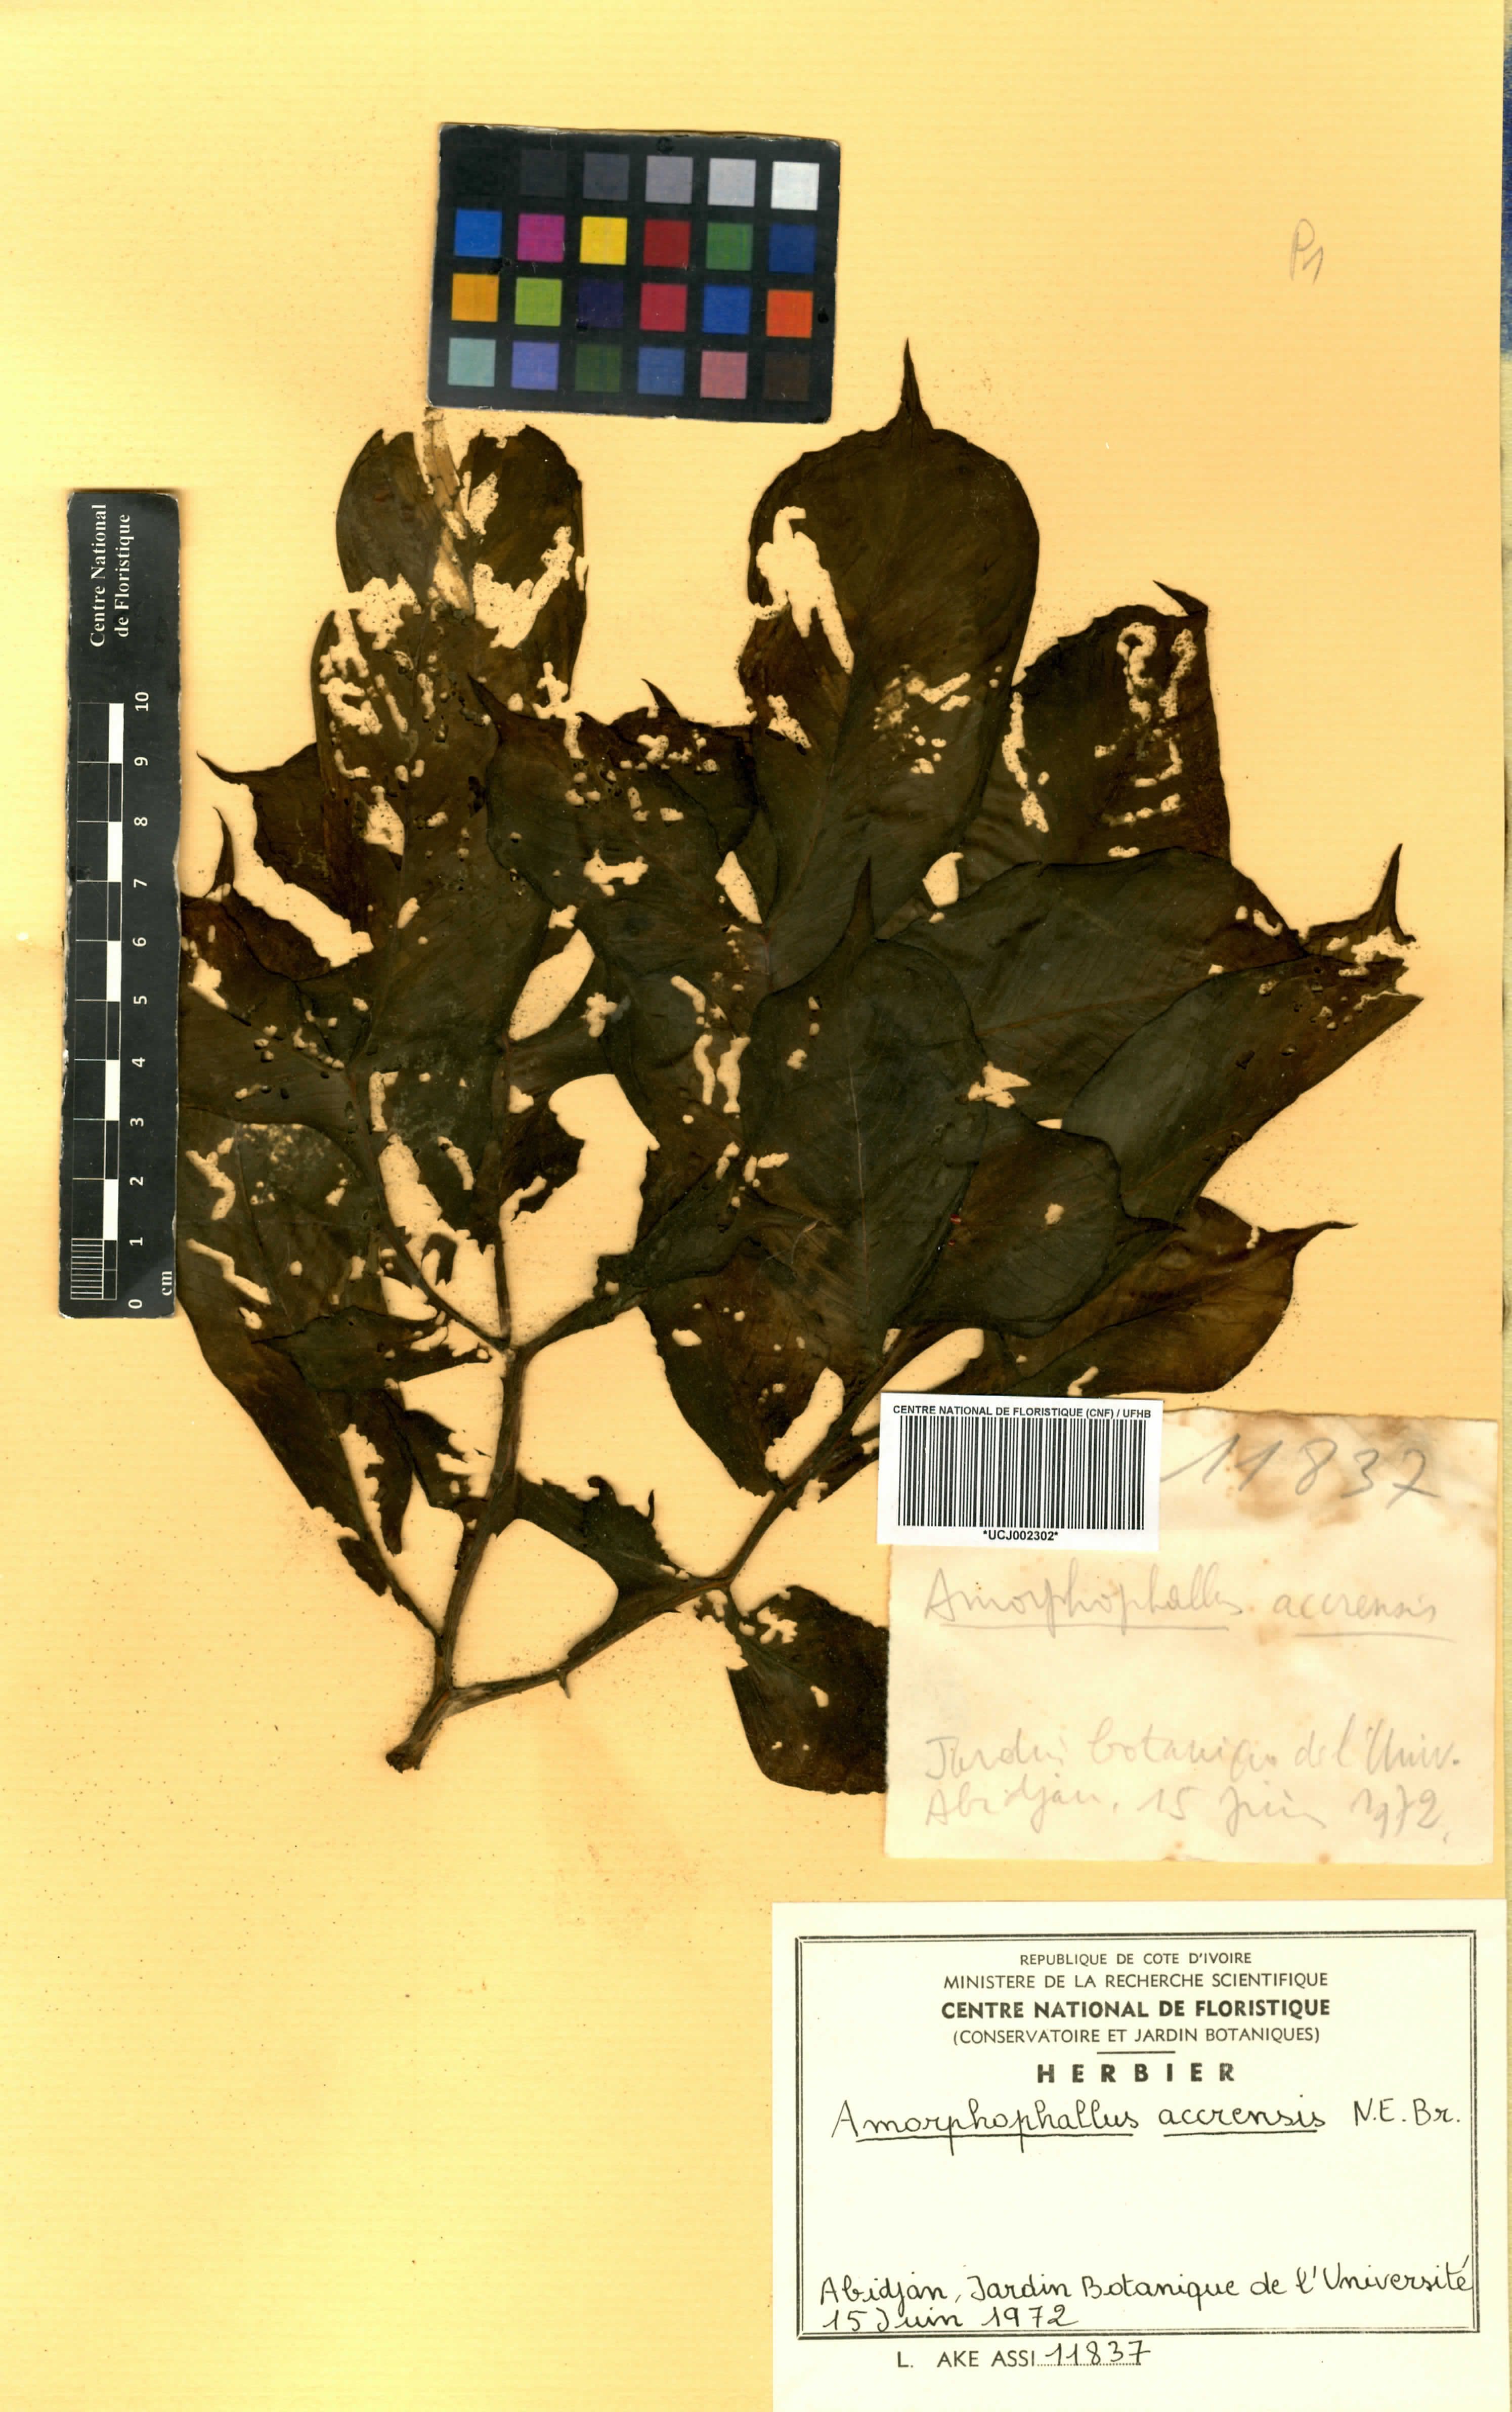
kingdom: Plantae
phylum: Tracheophyta
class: Liliopsida
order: Alismatales
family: Araceae
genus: Amorphophallus
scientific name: Amorphophallus johnsonii
